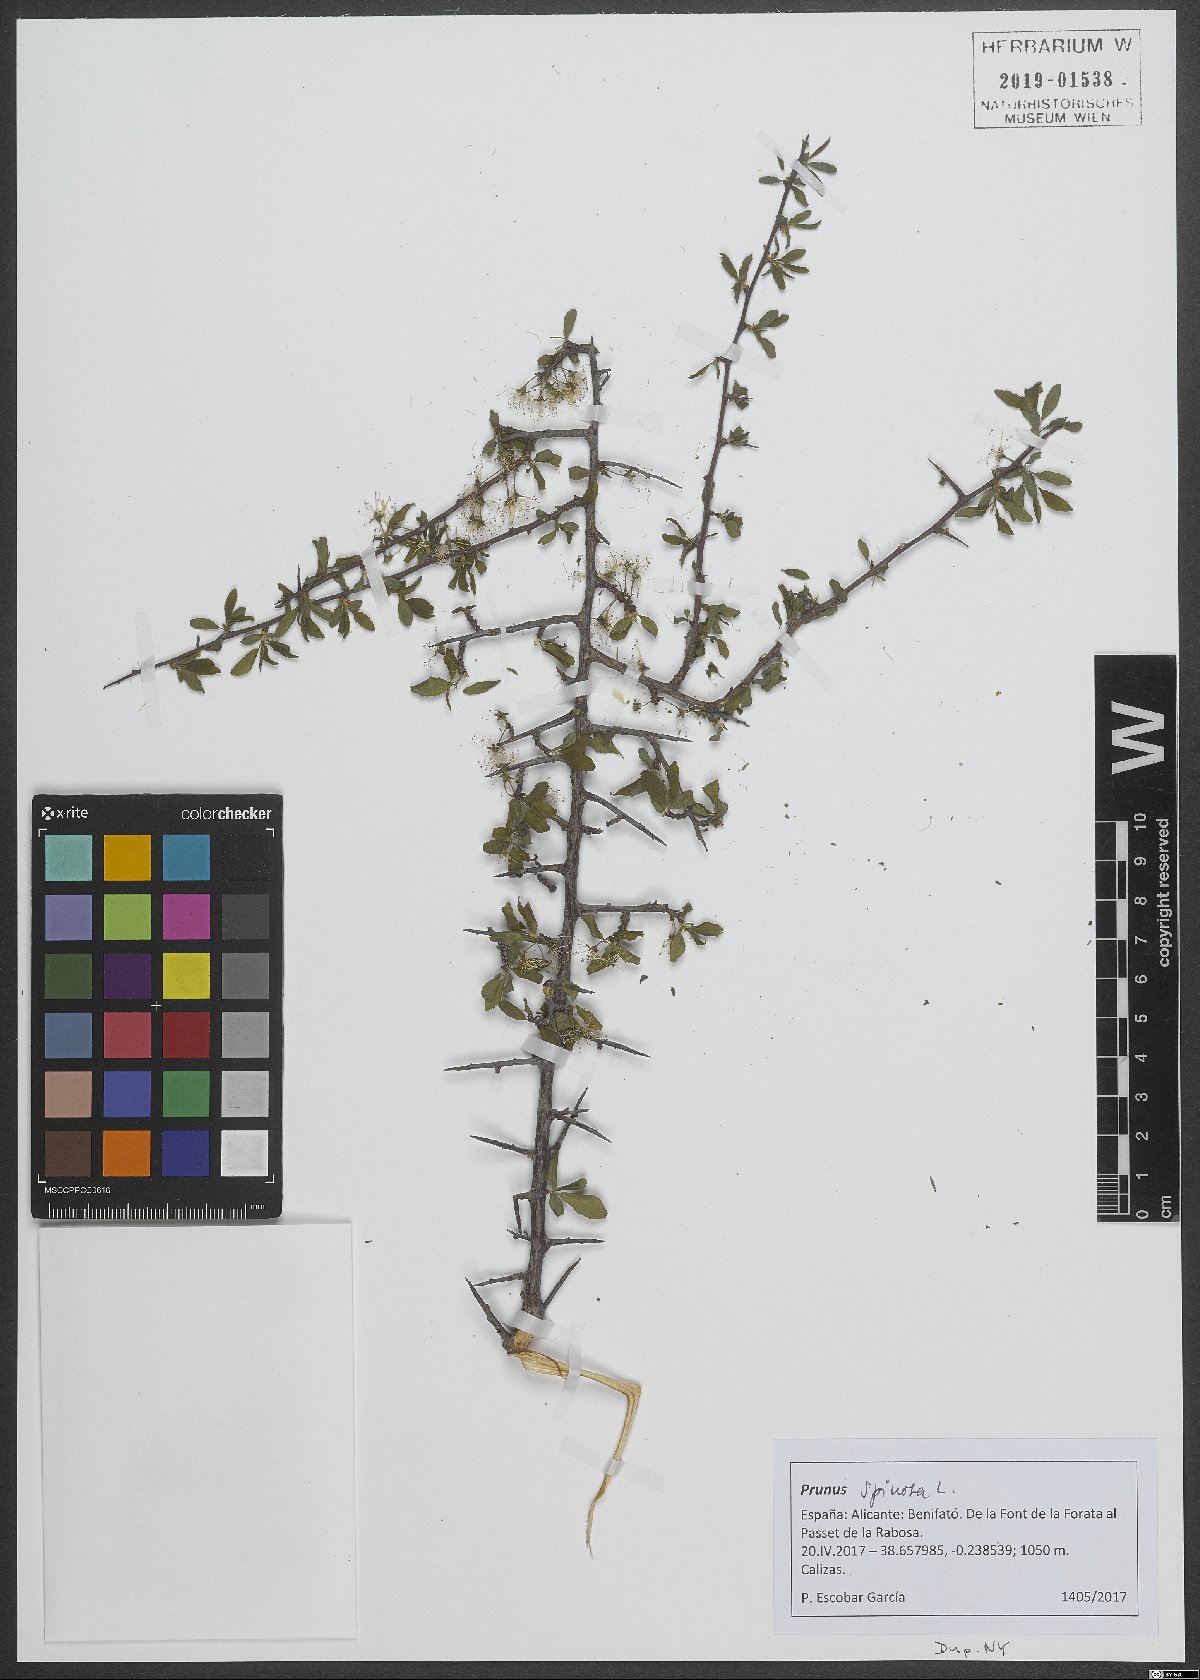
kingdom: Plantae
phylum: Tracheophyta
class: Magnoliopsida
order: Rosales
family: Rosaceae
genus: Prunus
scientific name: Prunus spinosa
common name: Blackthorn
